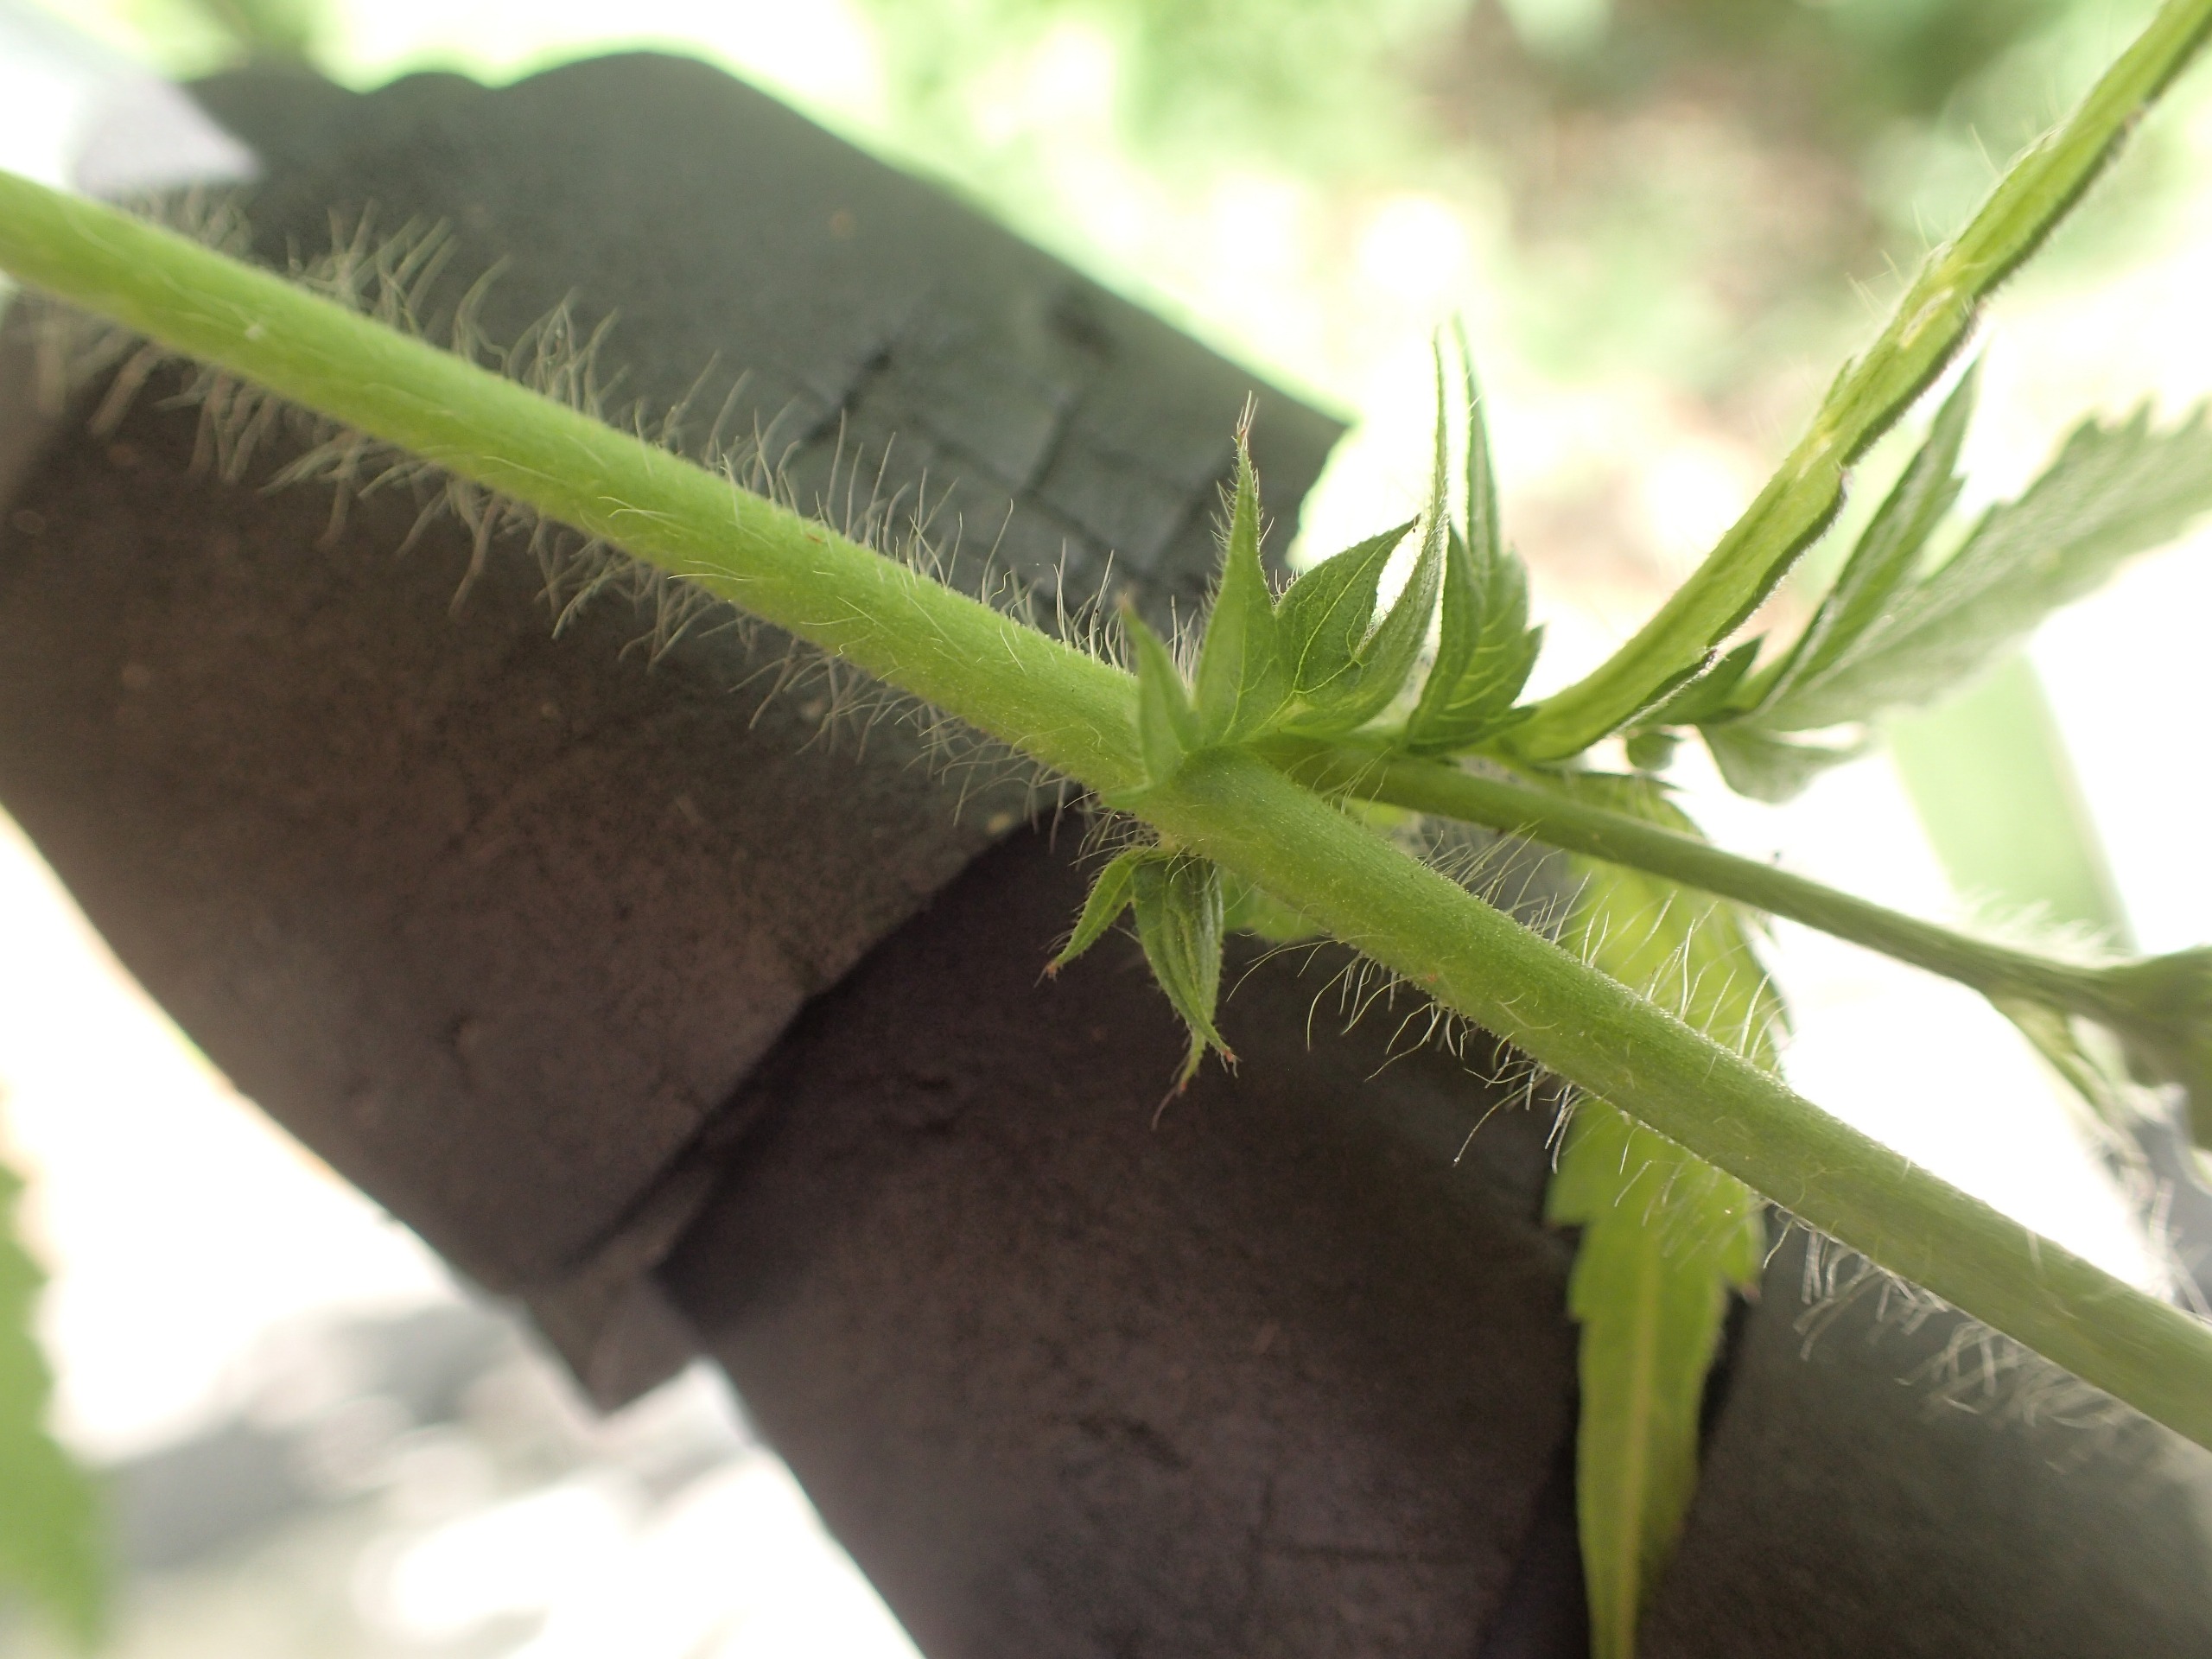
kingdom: Plantae
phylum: Tracheophyta
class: Magnoliopsida
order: Rosales
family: Rosaceae
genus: Agrimonia
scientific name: Agrimonia procera
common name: Vellugtende agermåne
